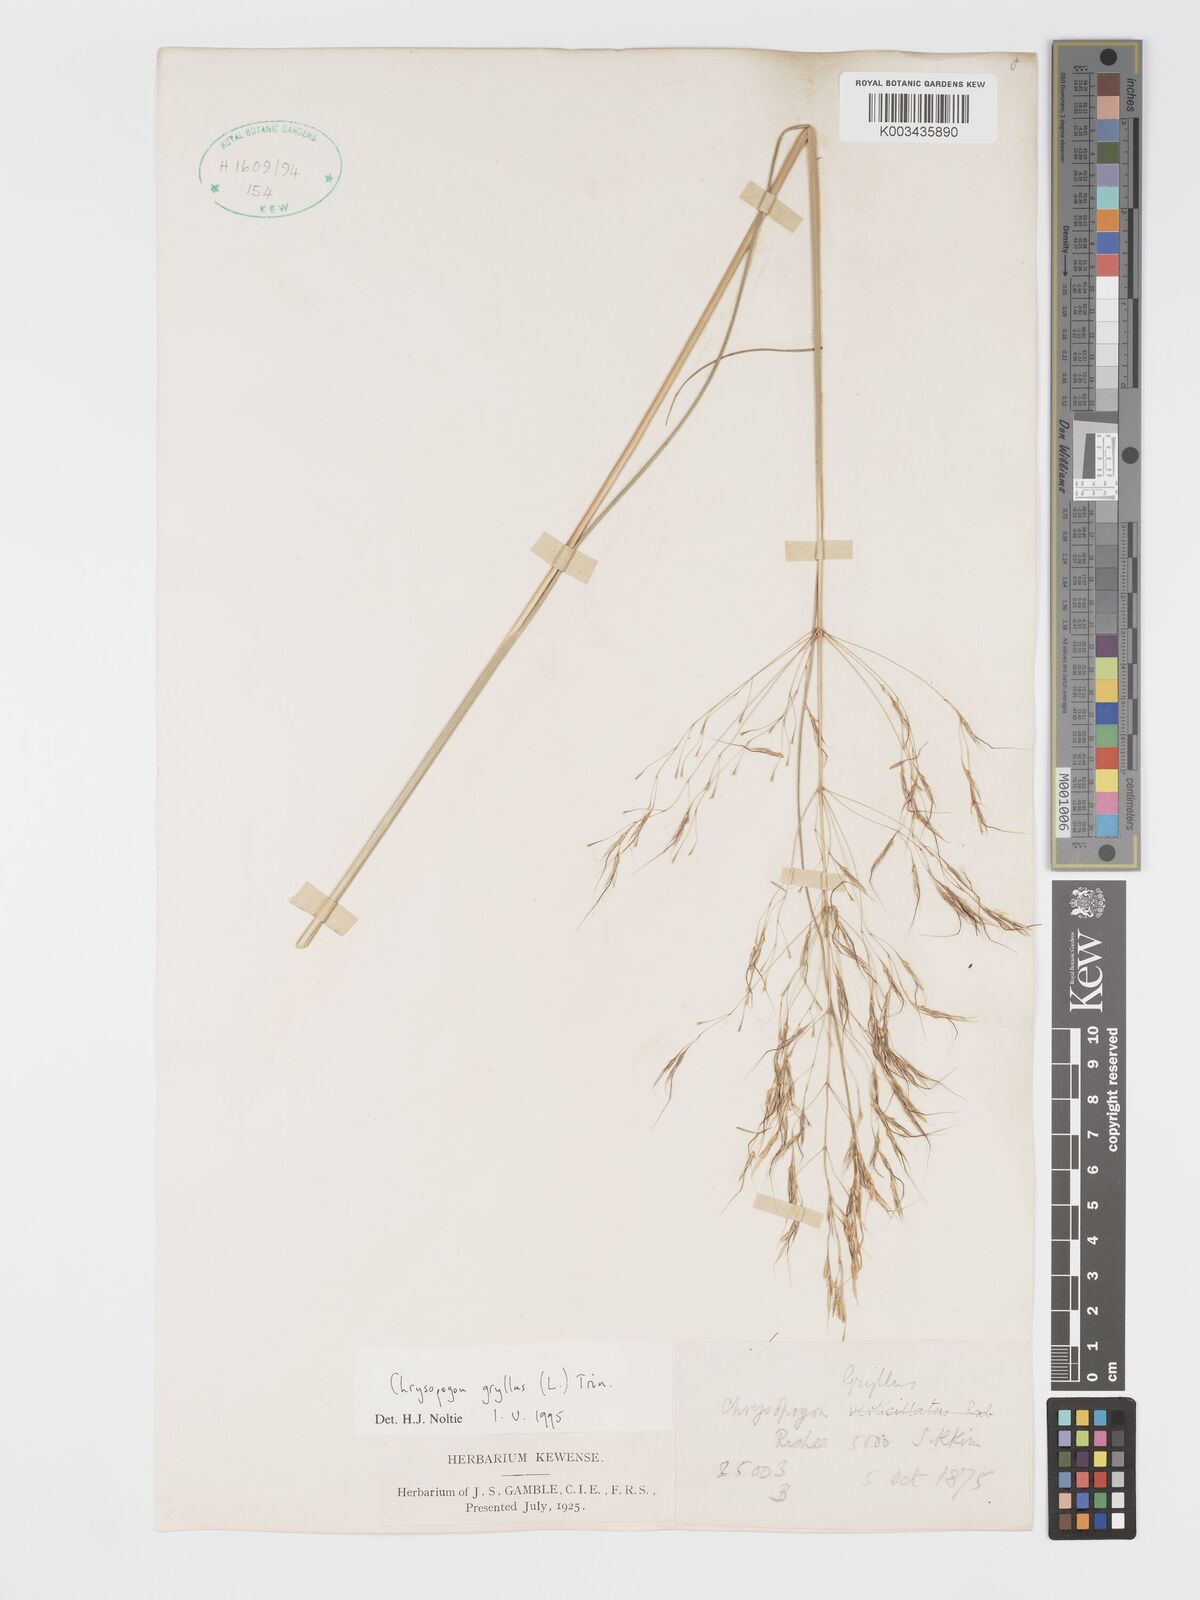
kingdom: Plantae
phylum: Tracheophyta
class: Liliopsida
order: Poales
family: Poaceae
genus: Chrysopogon
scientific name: Chrysopogon gryllus
